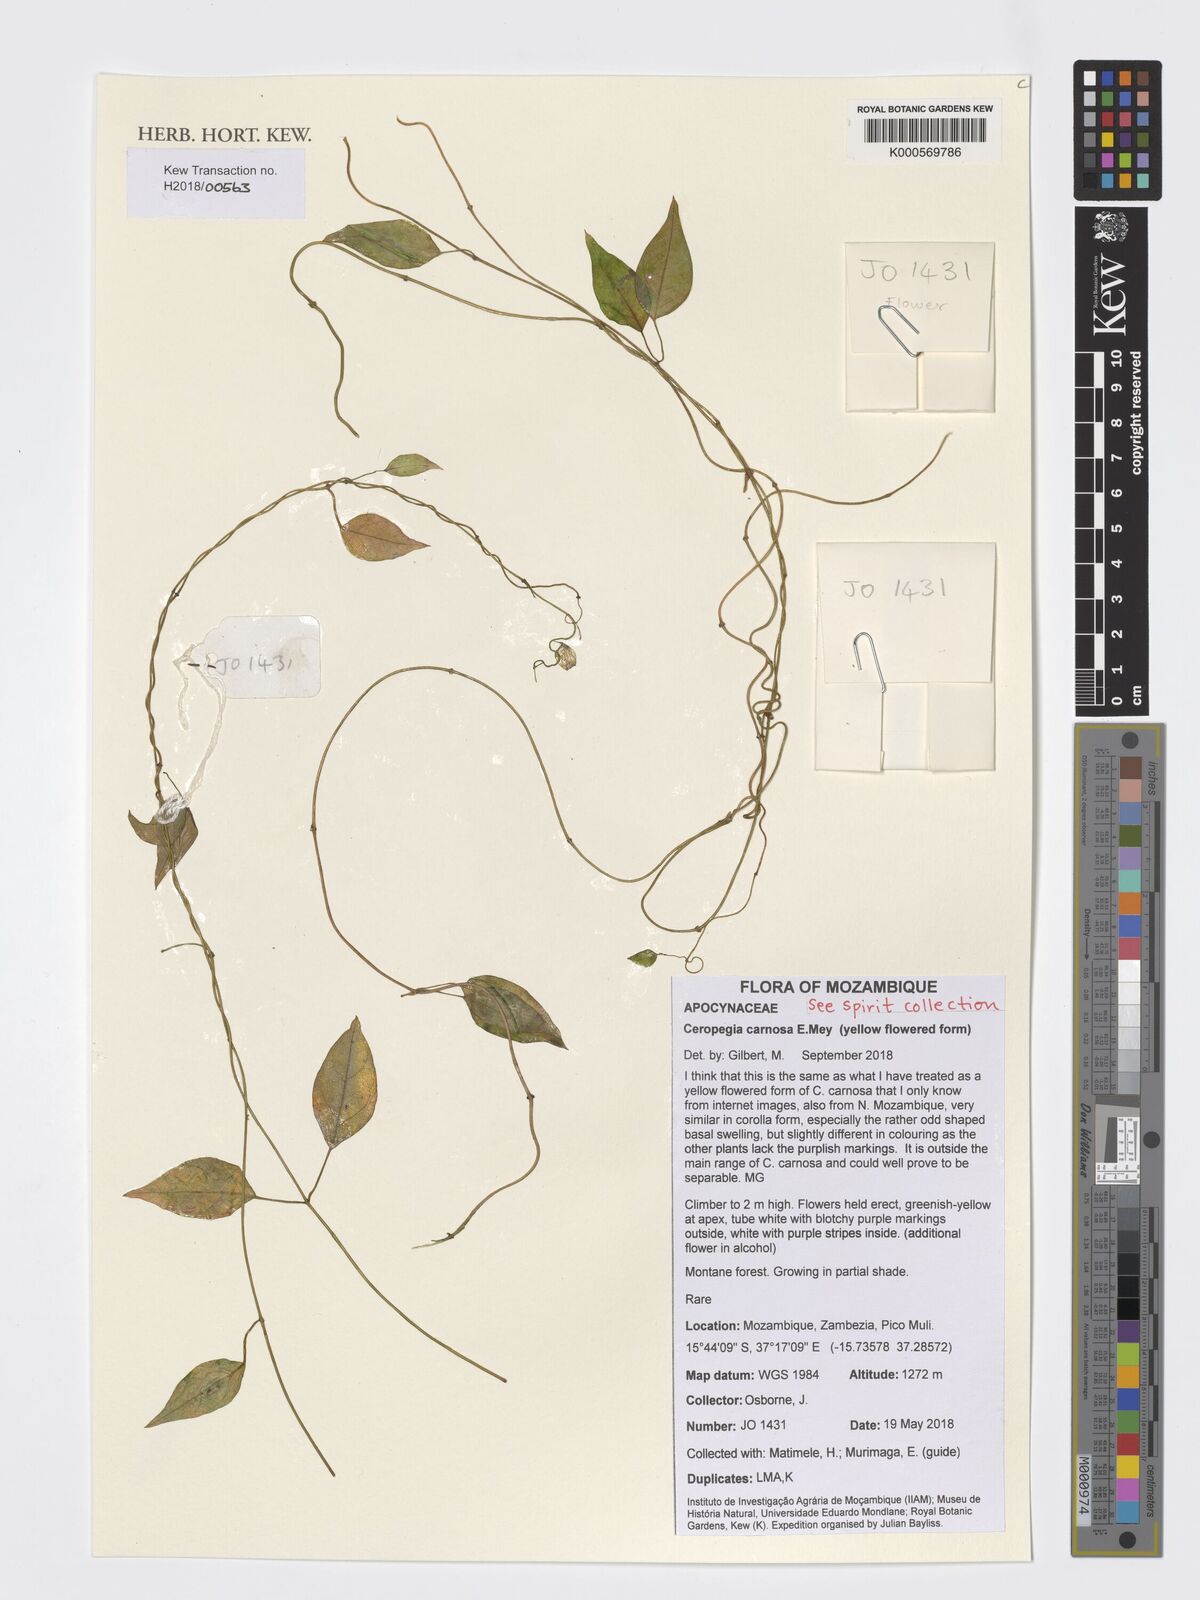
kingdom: Plantae
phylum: Tracheophyta
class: Magnoliopsida
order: Gentianales
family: Apocynaceae
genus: Ceropegia
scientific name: Ceropegia carnosa
